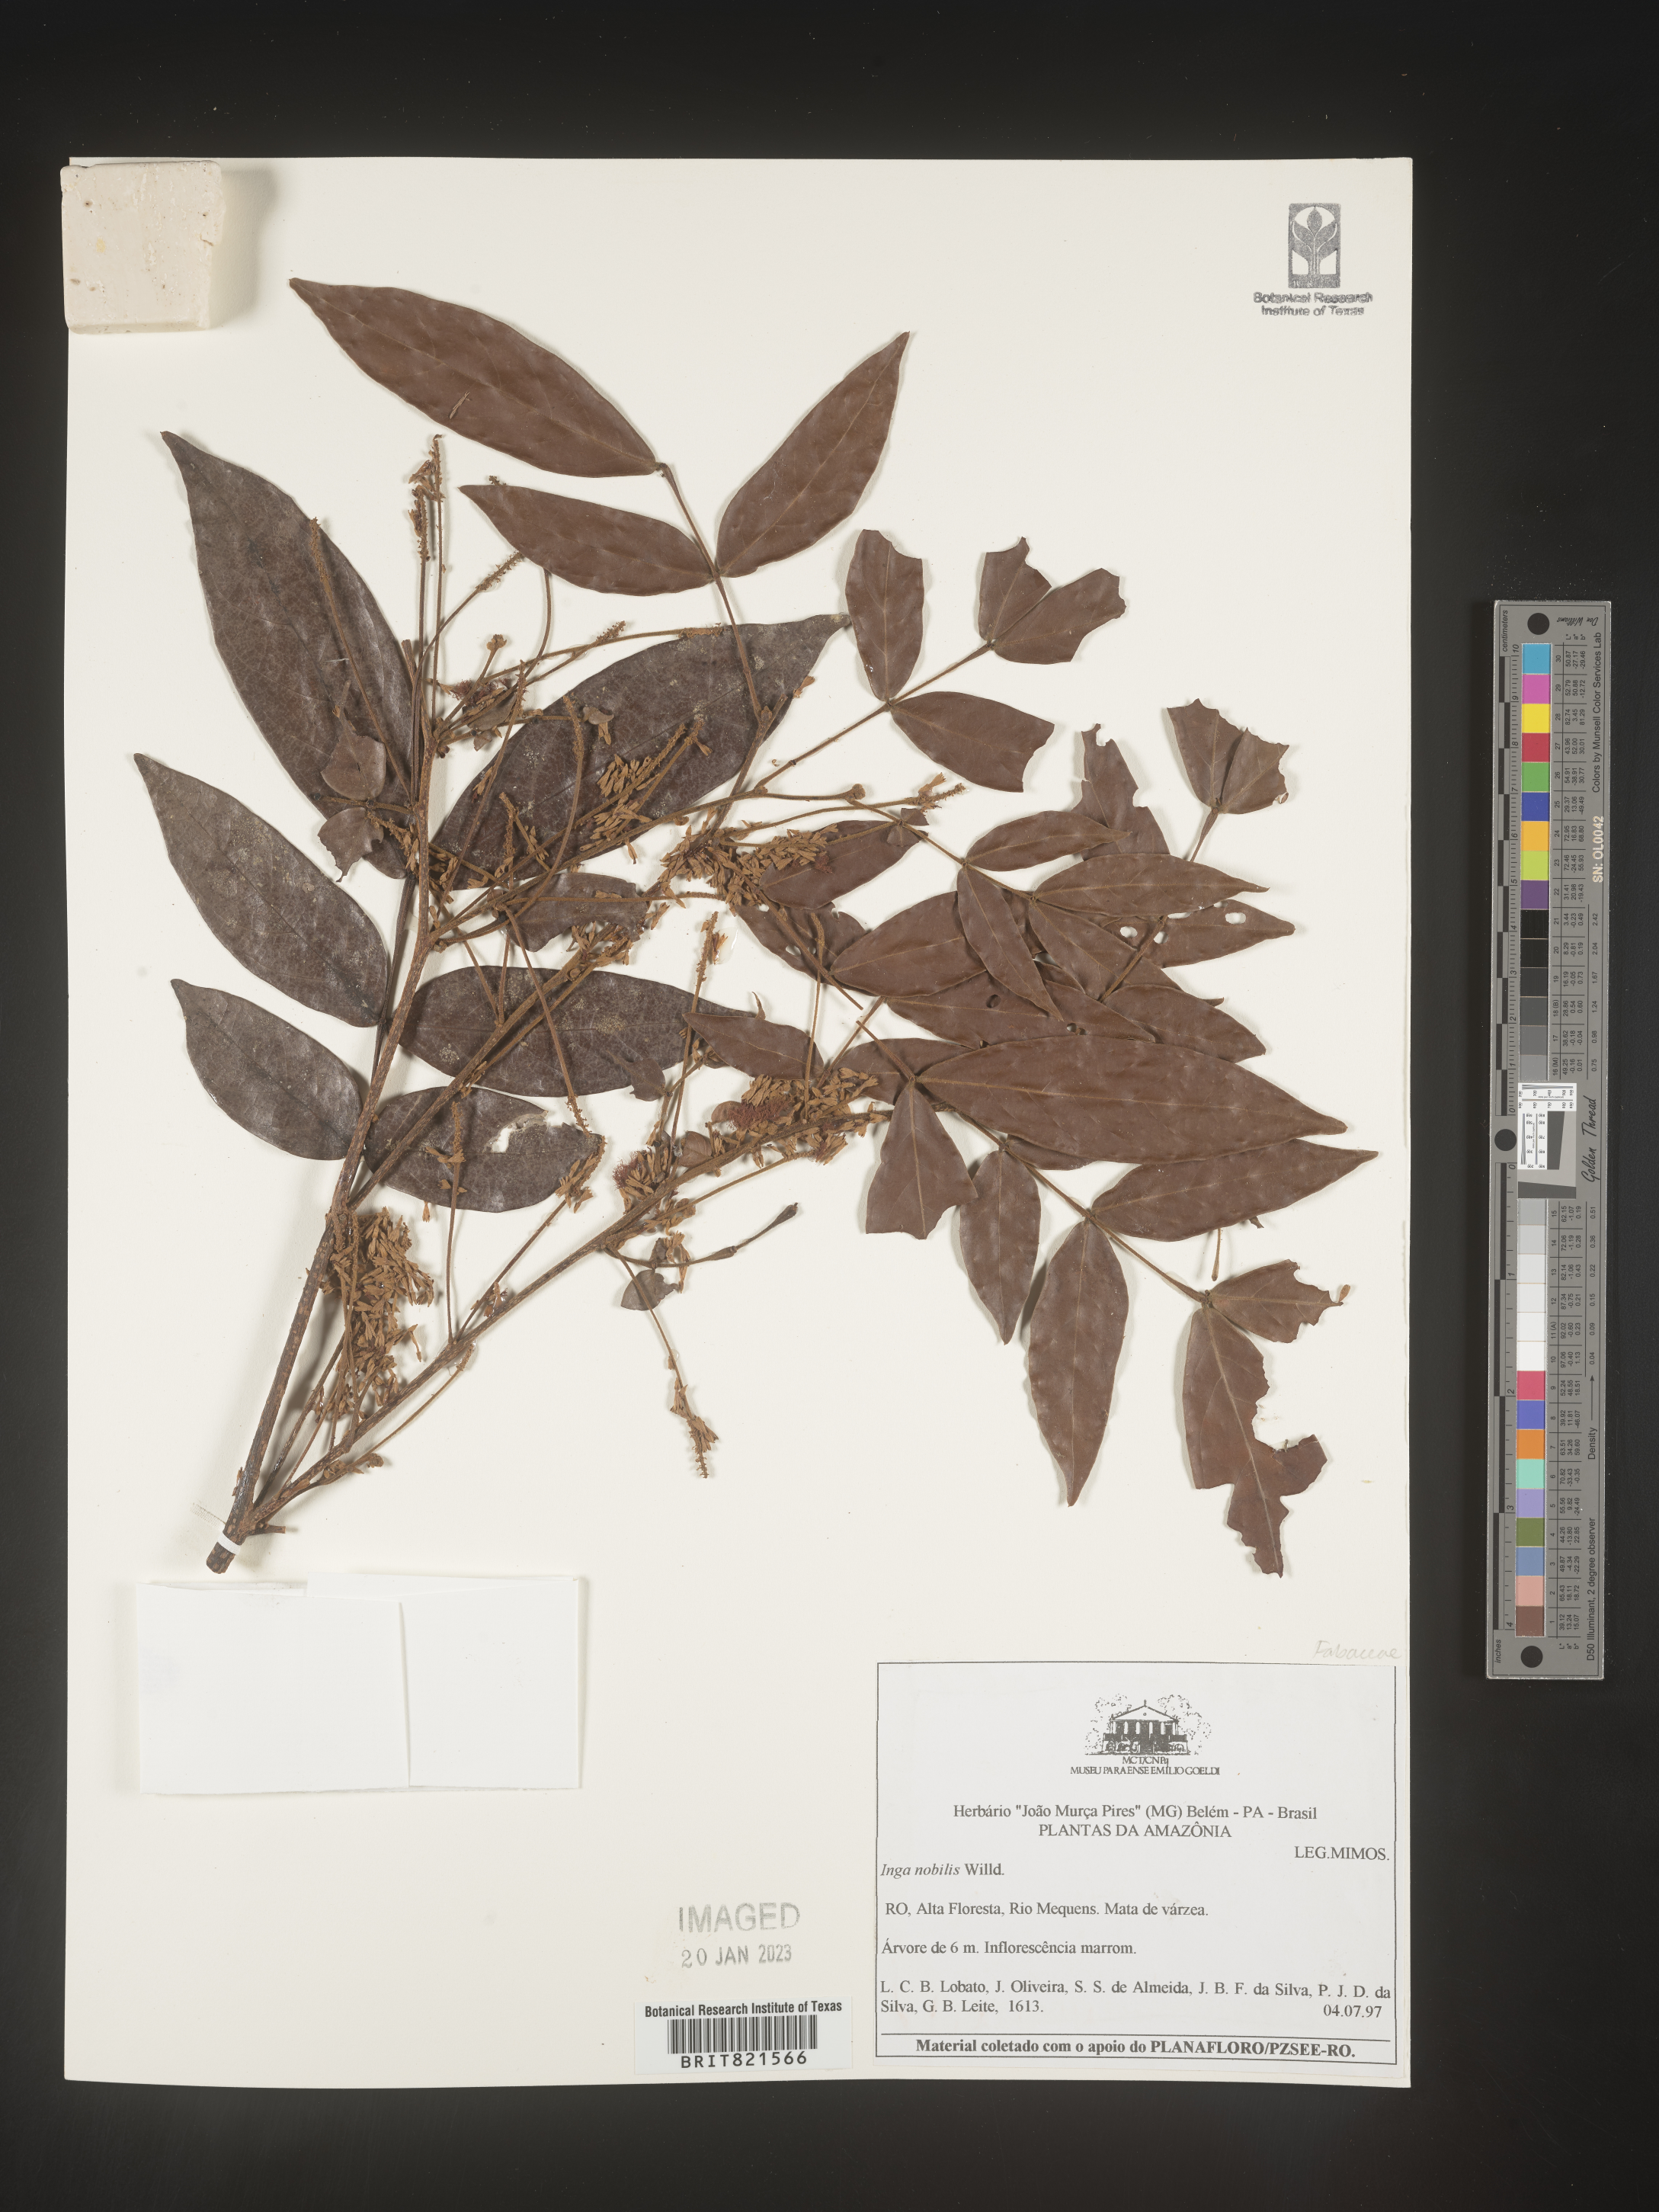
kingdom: Plantae
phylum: Tracheophyta
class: Magnoliopsida
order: Fabales
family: Fabaceae
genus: Inga
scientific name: Inga
